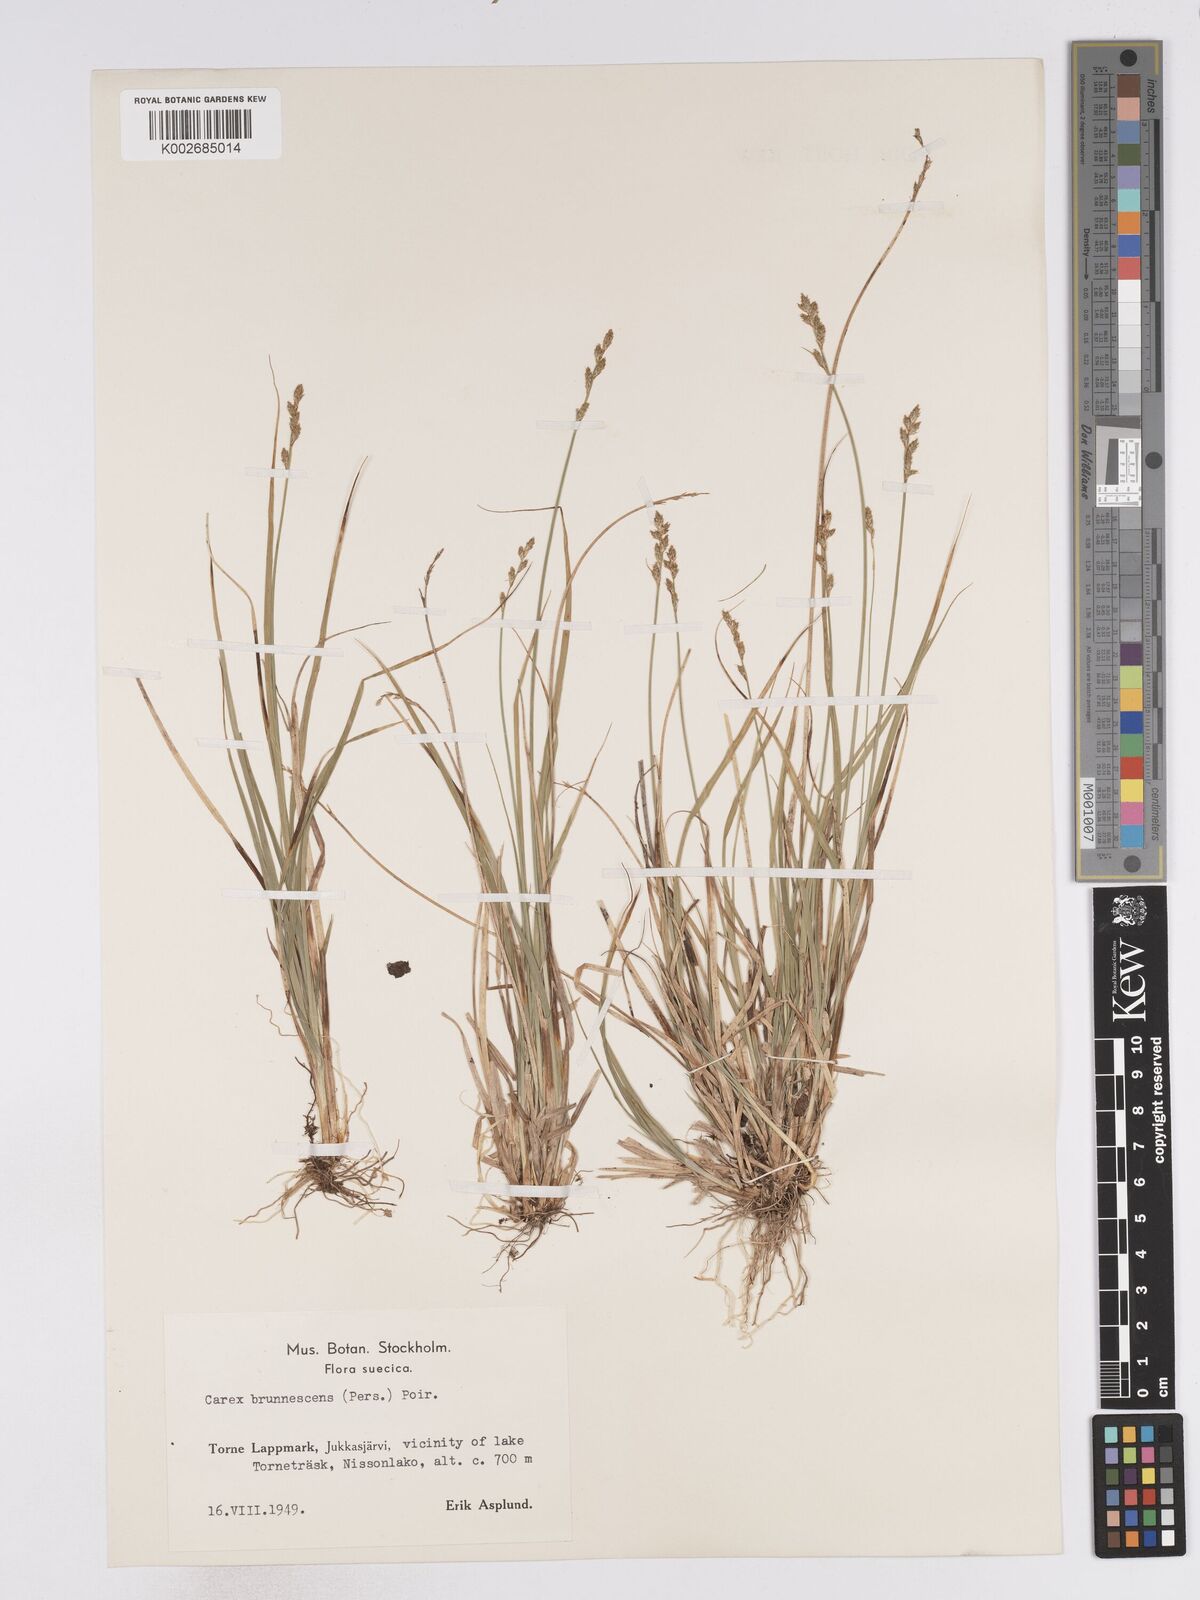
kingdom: Plantae
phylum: Tracheophyta
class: Liliopsida
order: Poales
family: Cyperaceae
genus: Carex
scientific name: Carex brunnescens
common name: Brown sedge
